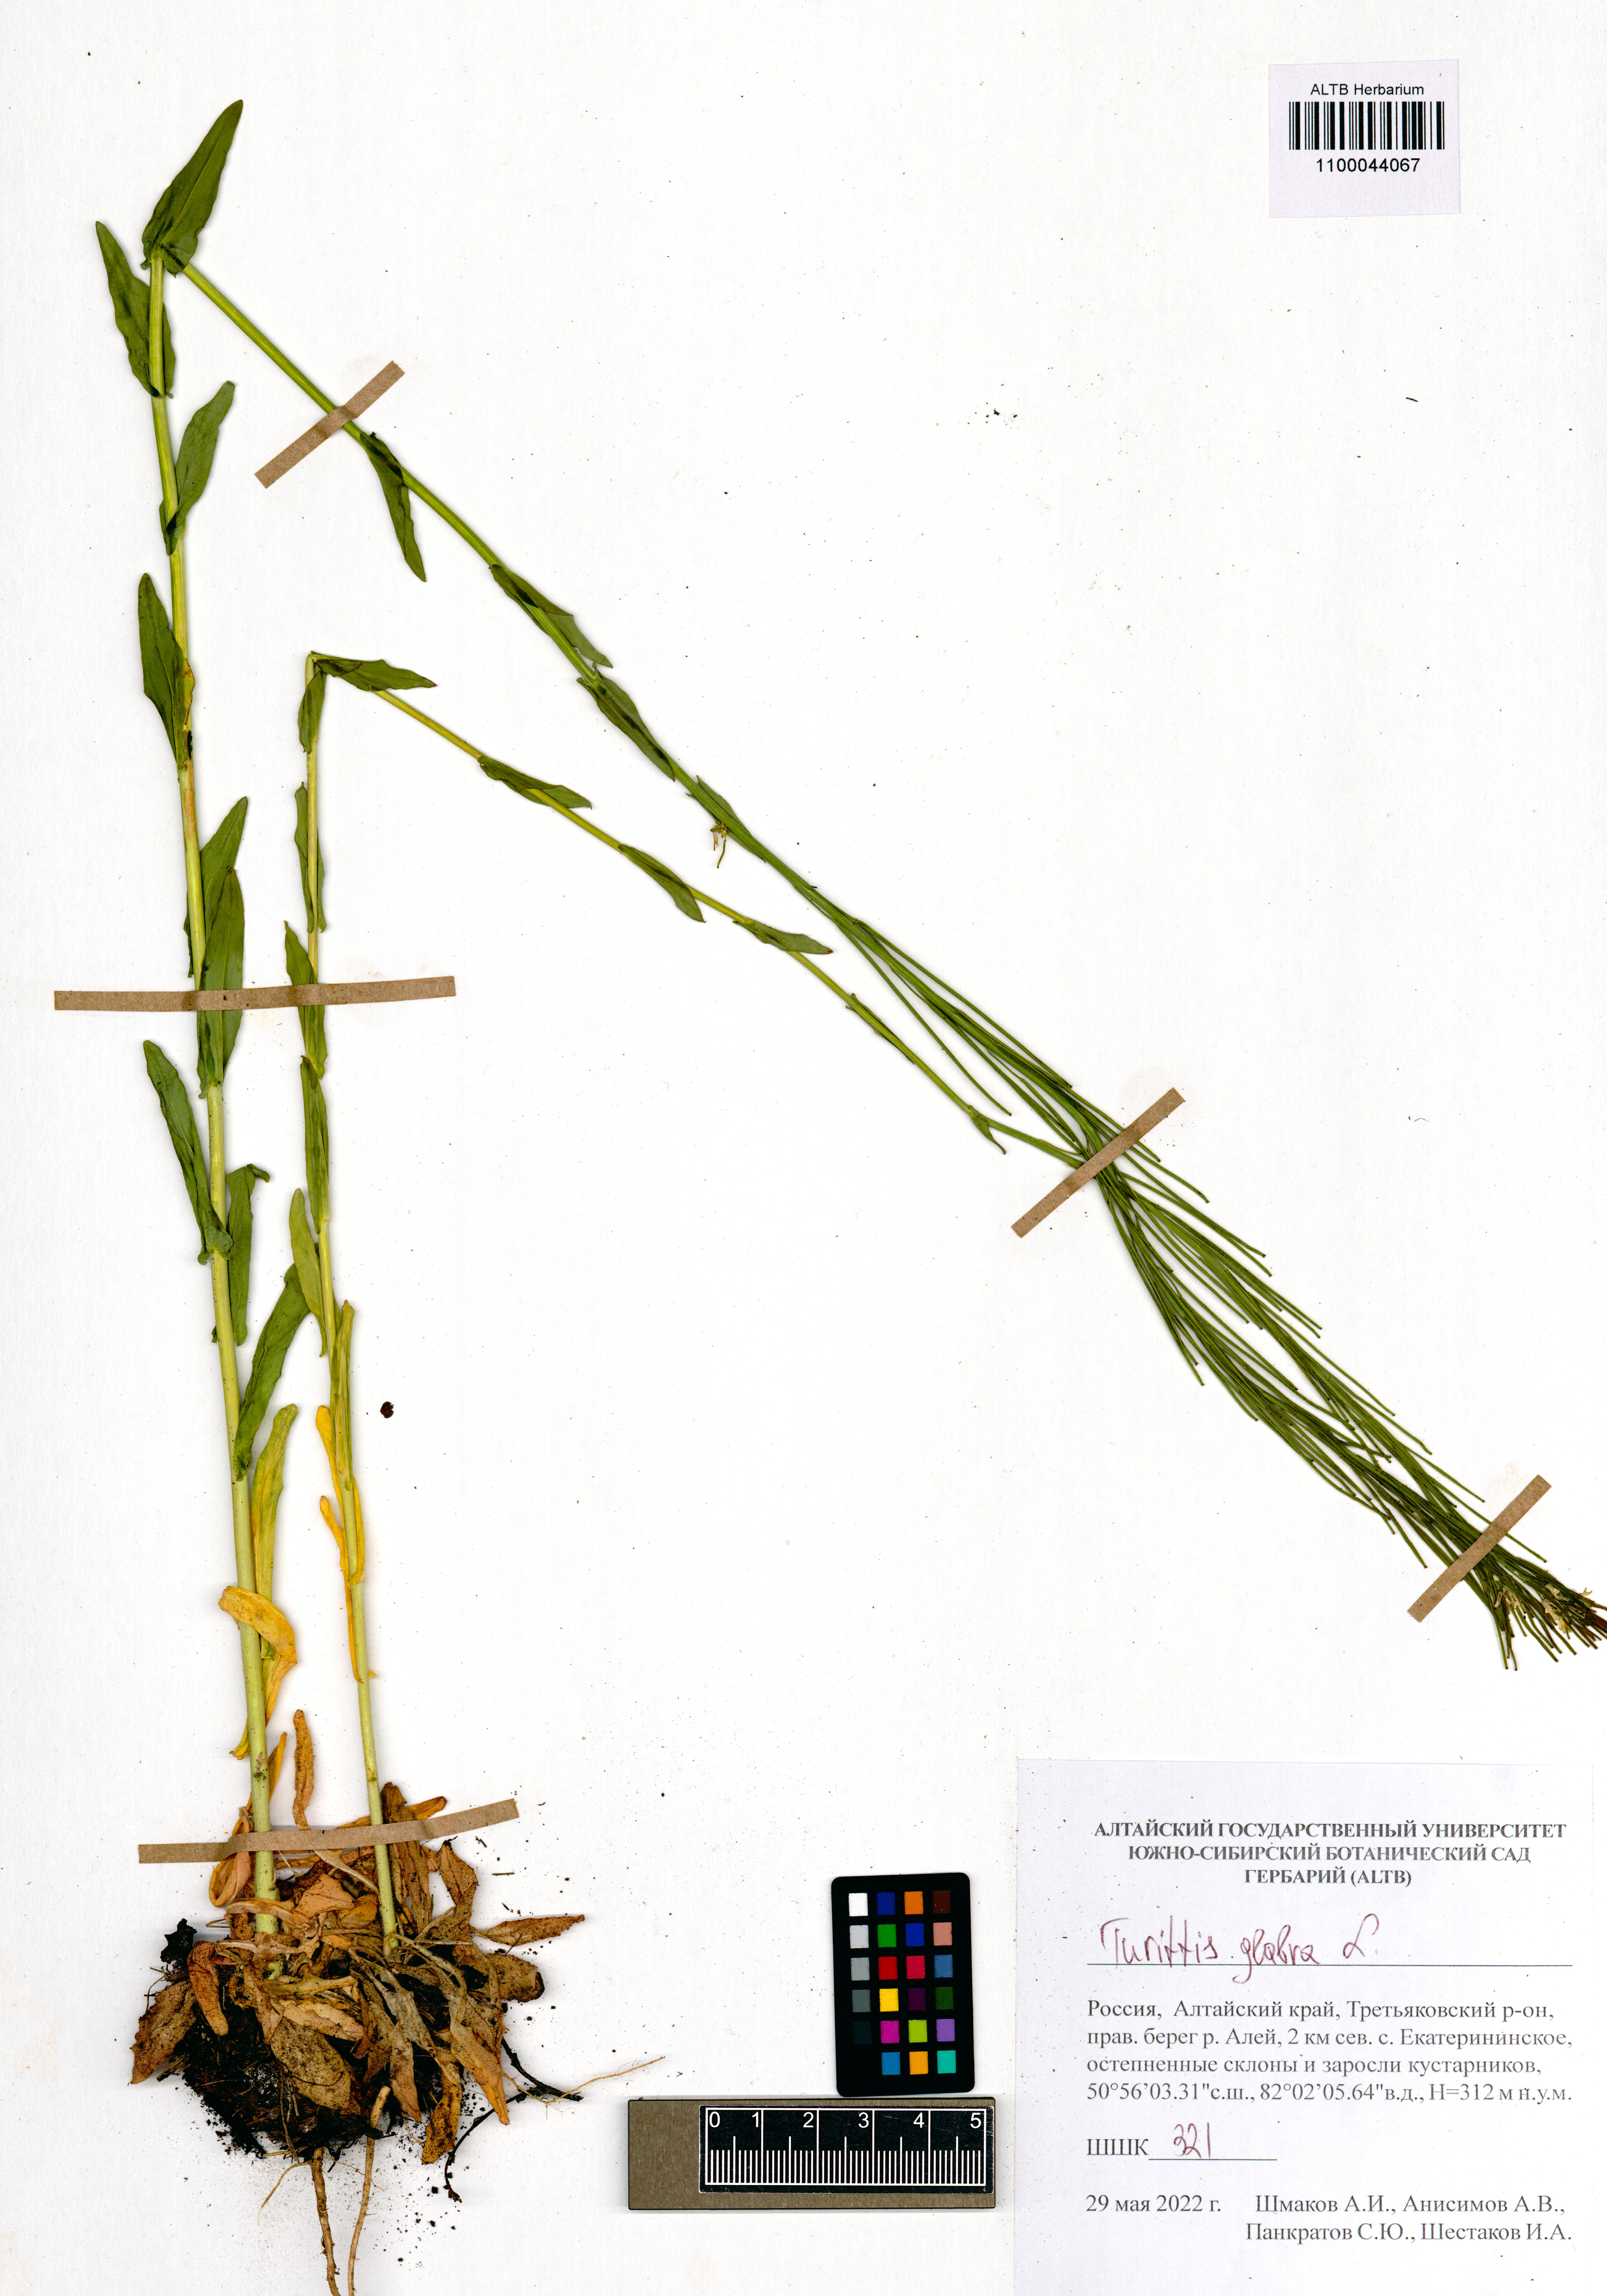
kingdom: Plantae
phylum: Tracheophyta
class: Magnoliopsida
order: Brassicales
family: Brassicaceae
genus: Turritis
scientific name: Turritis glabra
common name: Tower rockcress
